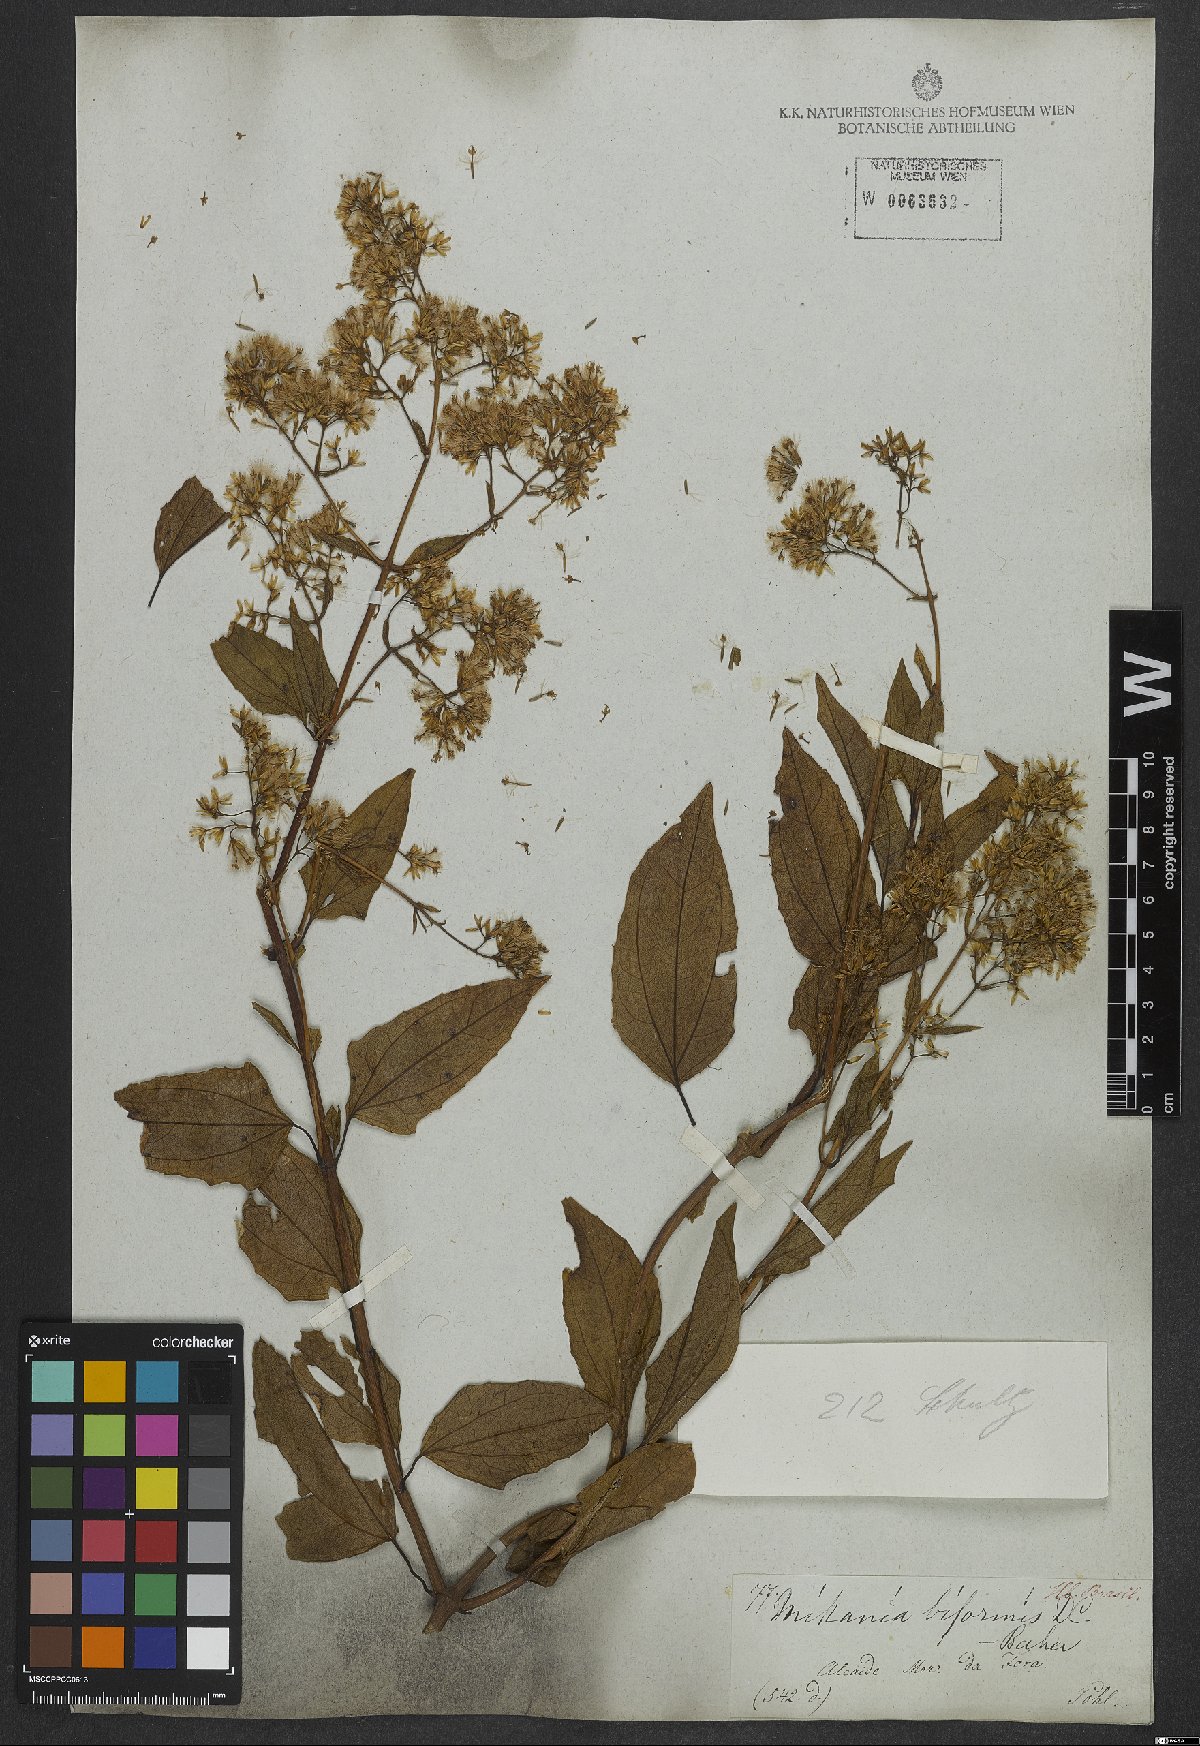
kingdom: Plantae
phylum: Tracheophyta
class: Magnoliopsida
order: Asterales
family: Asteraceae
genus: Mikania
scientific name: Mikania biformis
